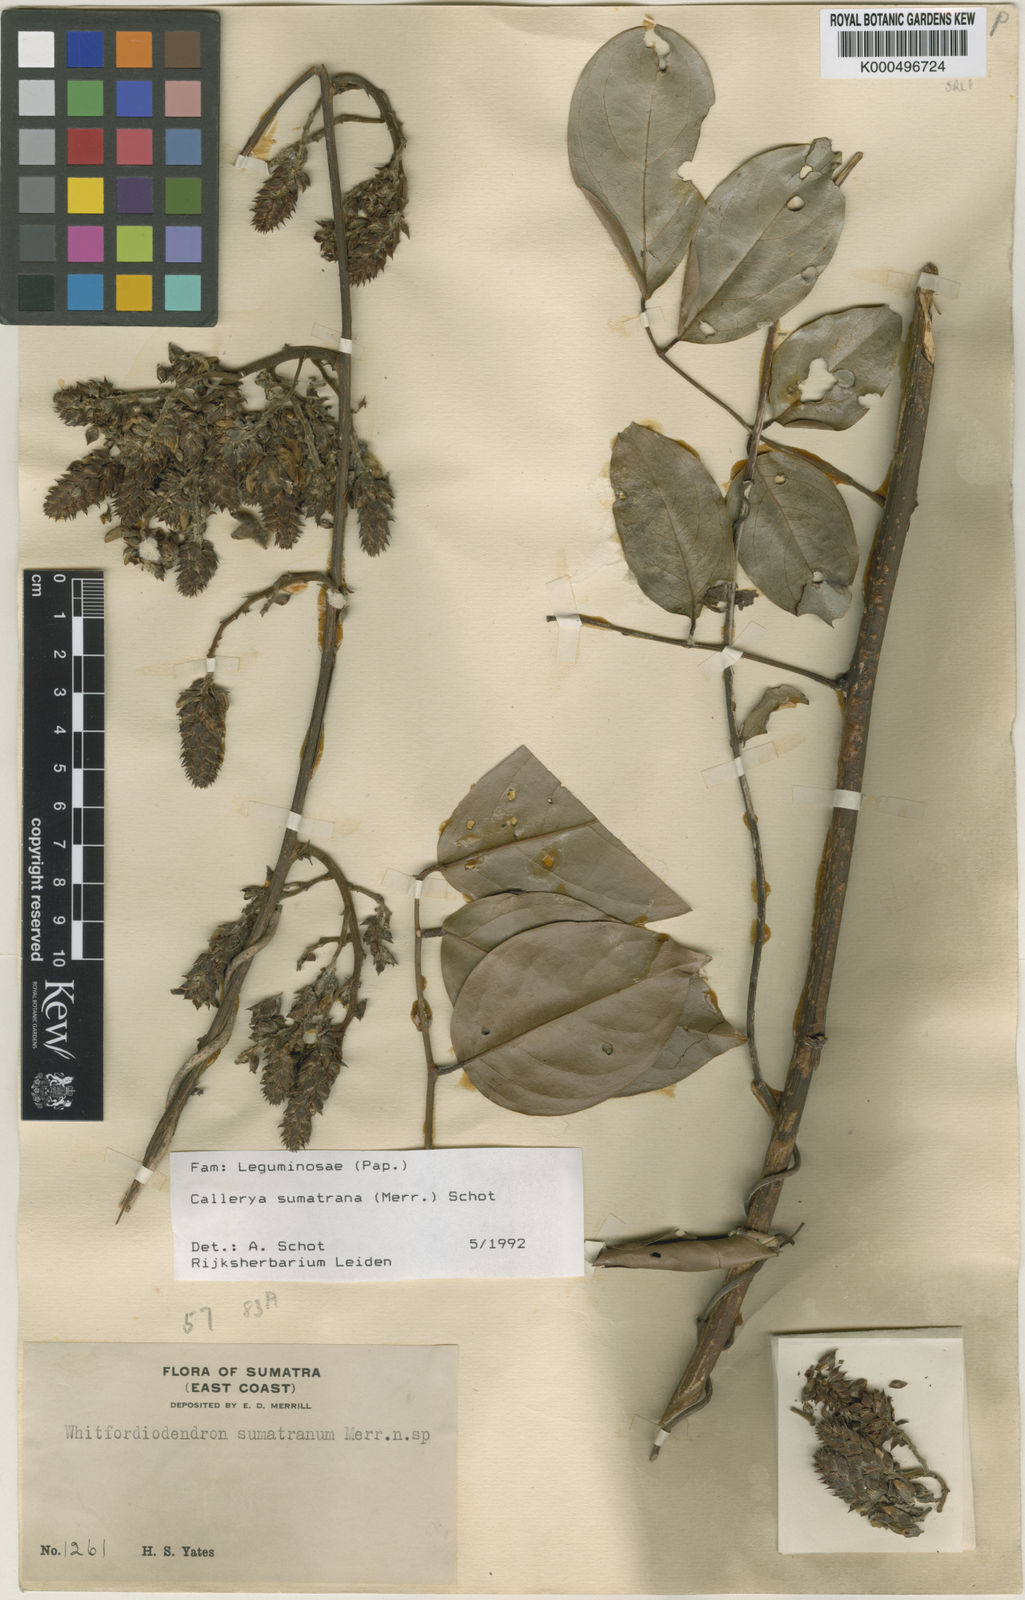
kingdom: Plantae
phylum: Tracheophyta
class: Magnoliopsida
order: Fabales
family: Fabaceae
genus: Whitfordiodendron
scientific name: Whitfordiodendron sumatranum
